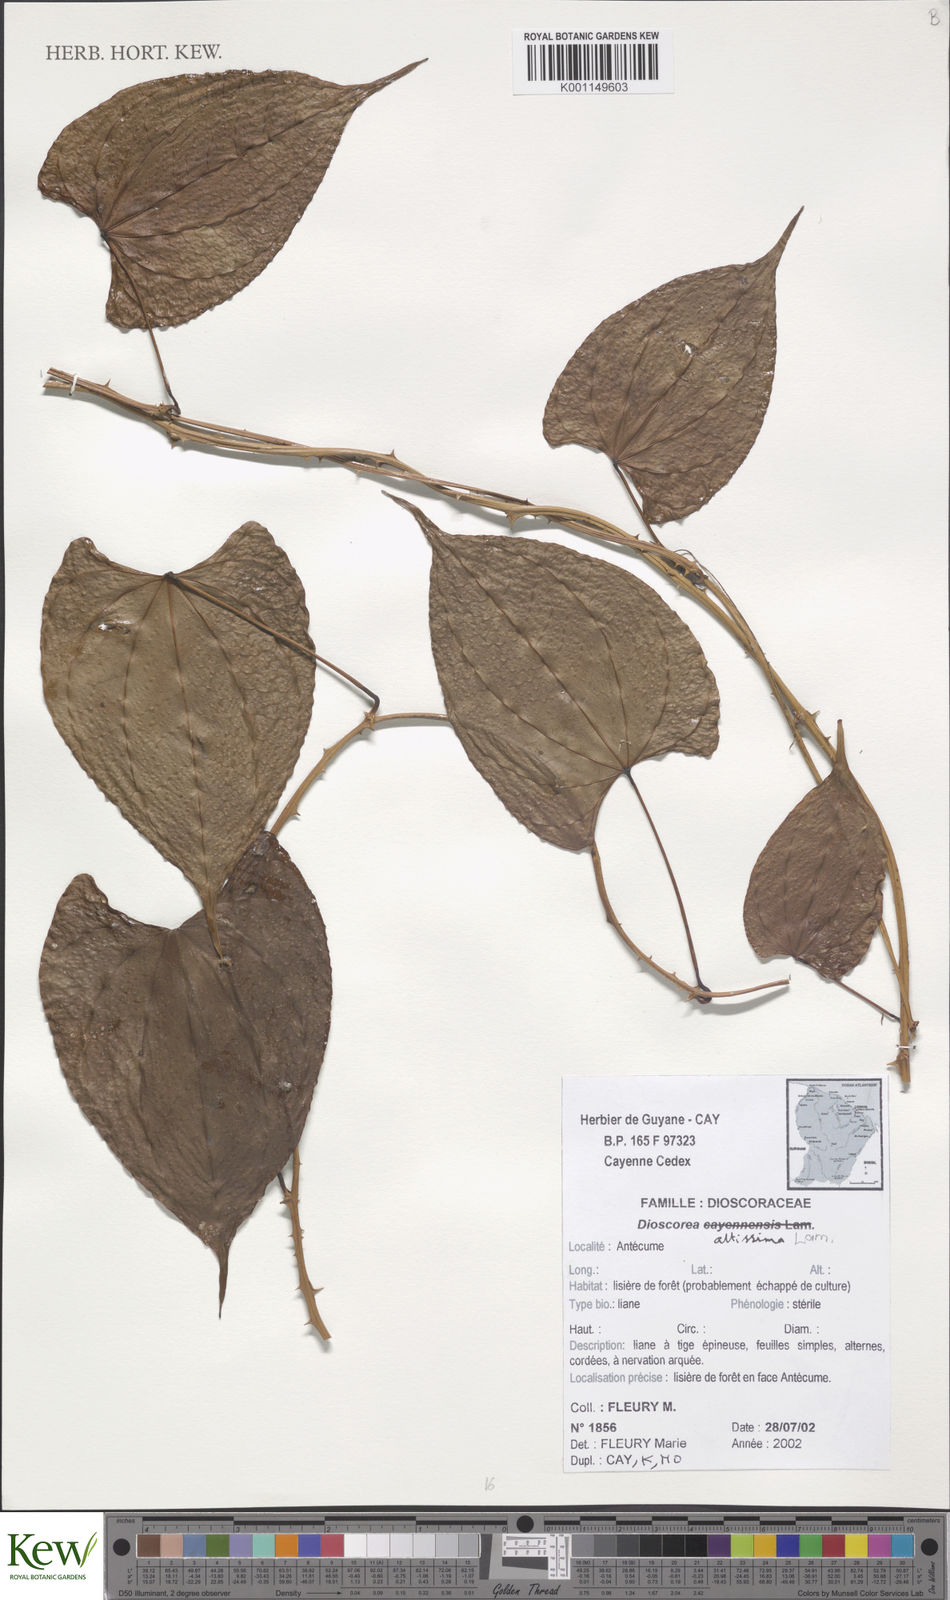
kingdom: Plantae
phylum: Tracheophyta
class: Liliopsida
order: Dioscoreales
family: Dioscoreaceae
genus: Dioscorea
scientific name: Dioscorea chondrocarpa
